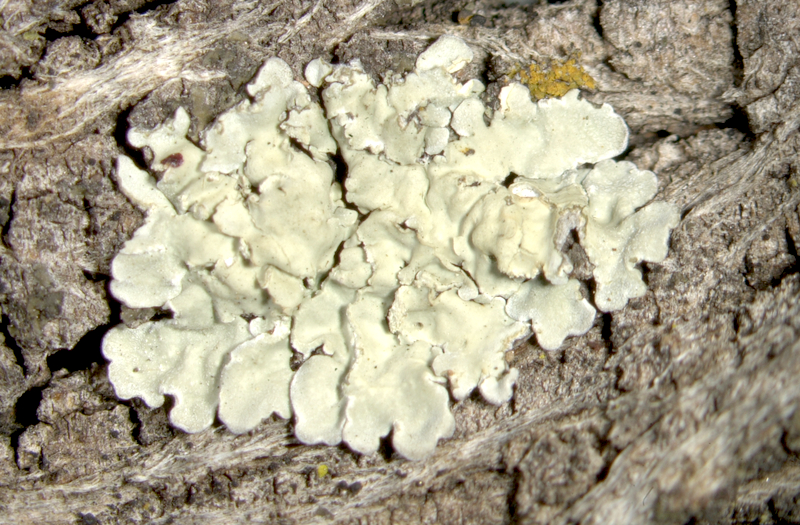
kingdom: Fungi
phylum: Ascomycota
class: Lecanoromycetes
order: Lecanorales
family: Parmeliaceae
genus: Flavoparmelia
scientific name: Flavoparmelia soredians
